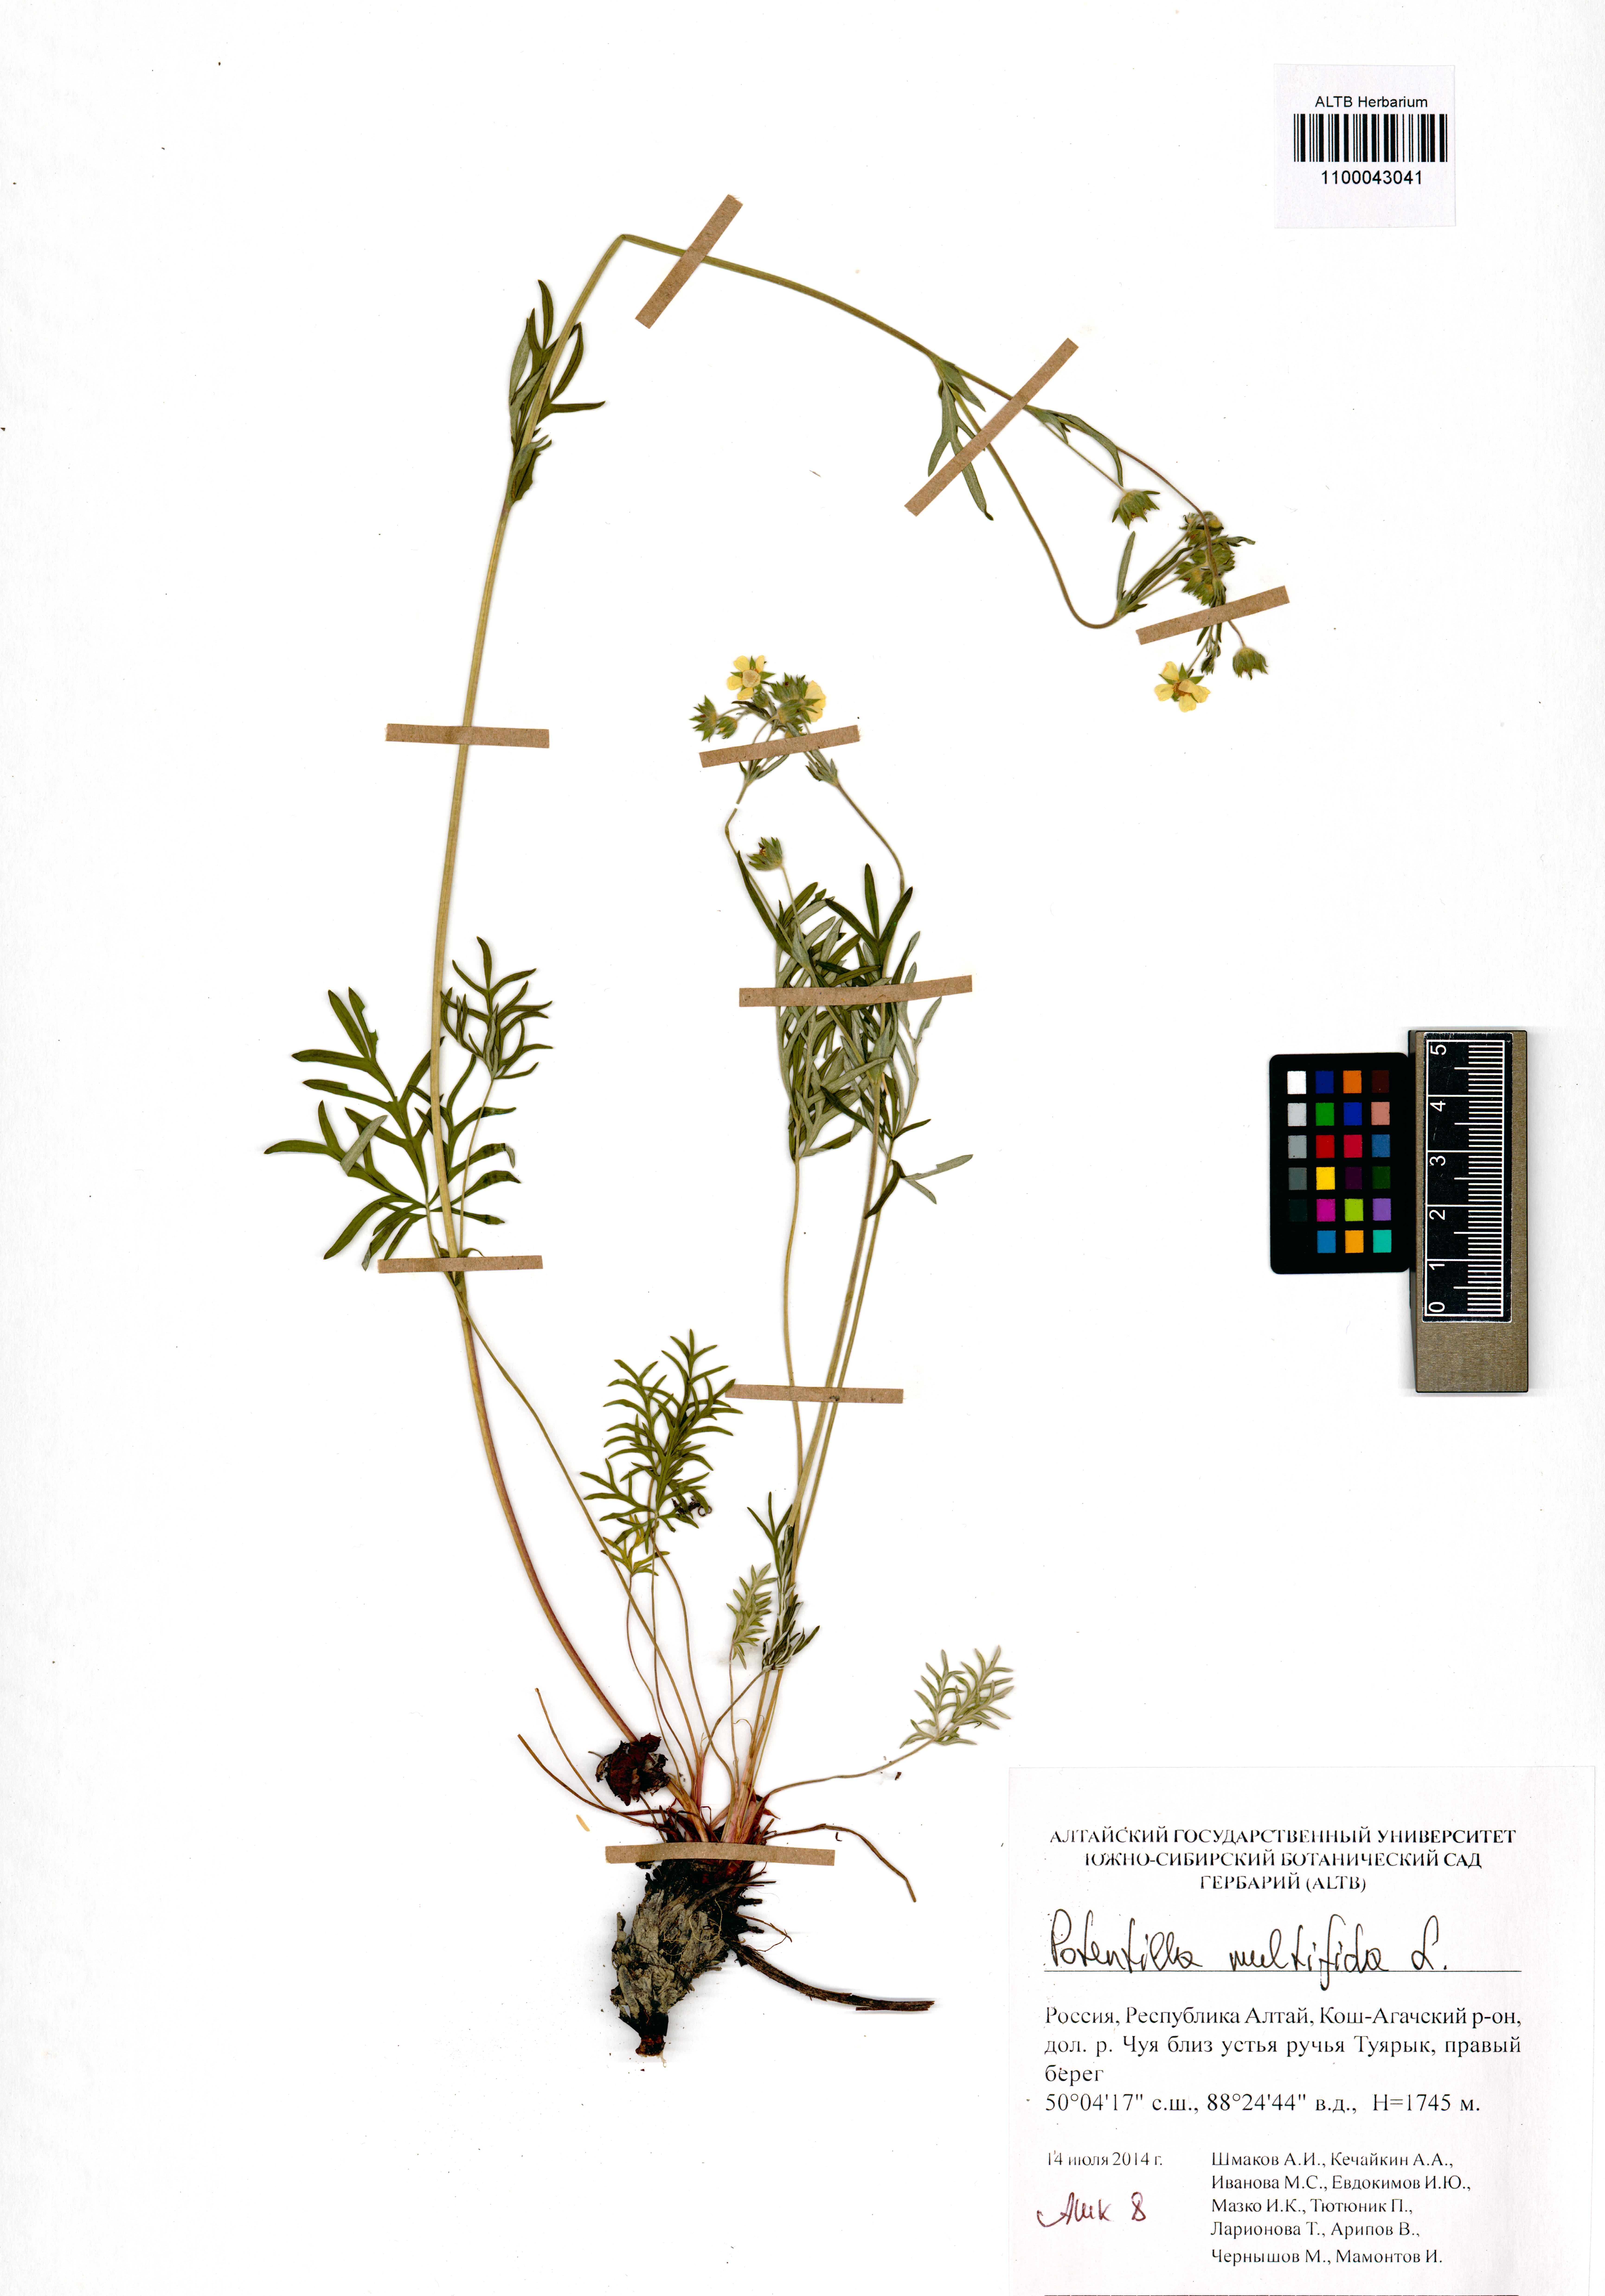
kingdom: Plantae
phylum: Tracheophyta
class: Magnoliopsida
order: Rosales
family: Rosaceae
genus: Potentilla
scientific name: Potentilla multifida
